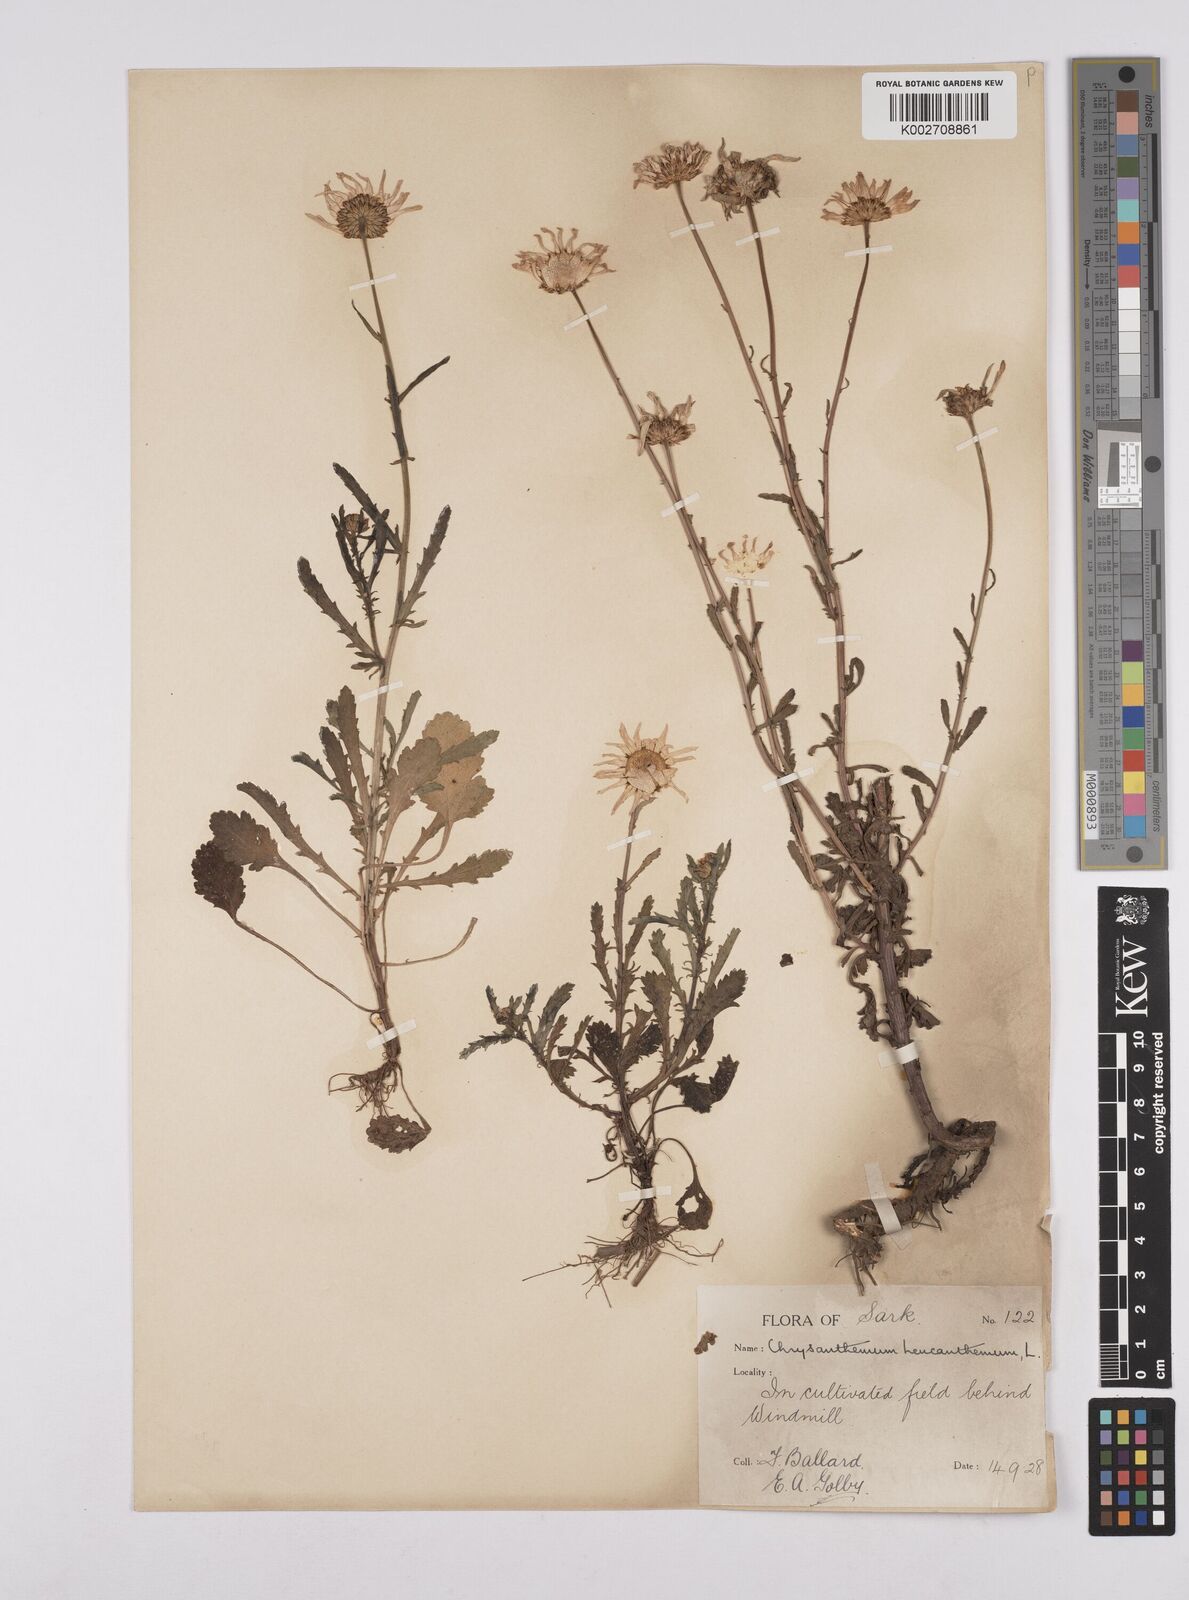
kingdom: Plantae
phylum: Tracheophyta
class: Magnoliopsida
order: Asterales
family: Asteraceae
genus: Leucanthemum
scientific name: Leucanthemum
